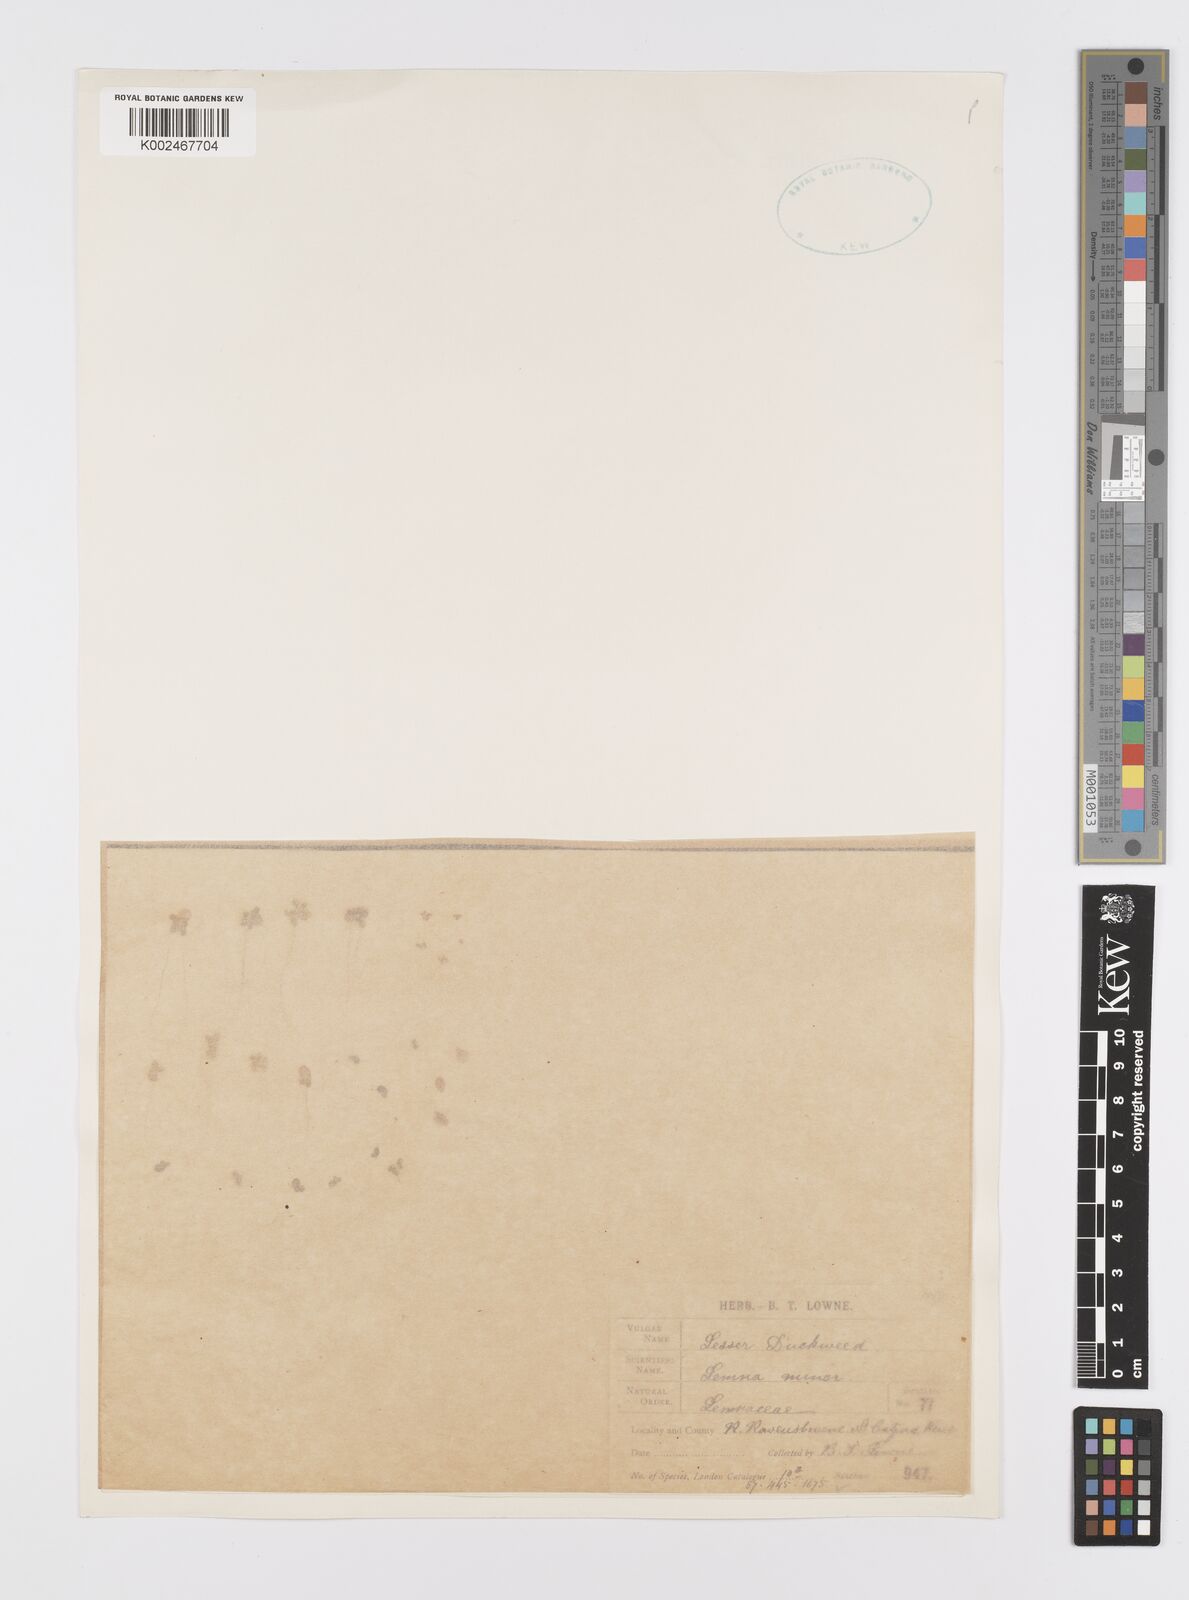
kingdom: Plantae
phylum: Tracheophyta
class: Liliopsida
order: Alismatales
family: Araceae
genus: Lemna
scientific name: Lemna minor
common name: Common duckweed
